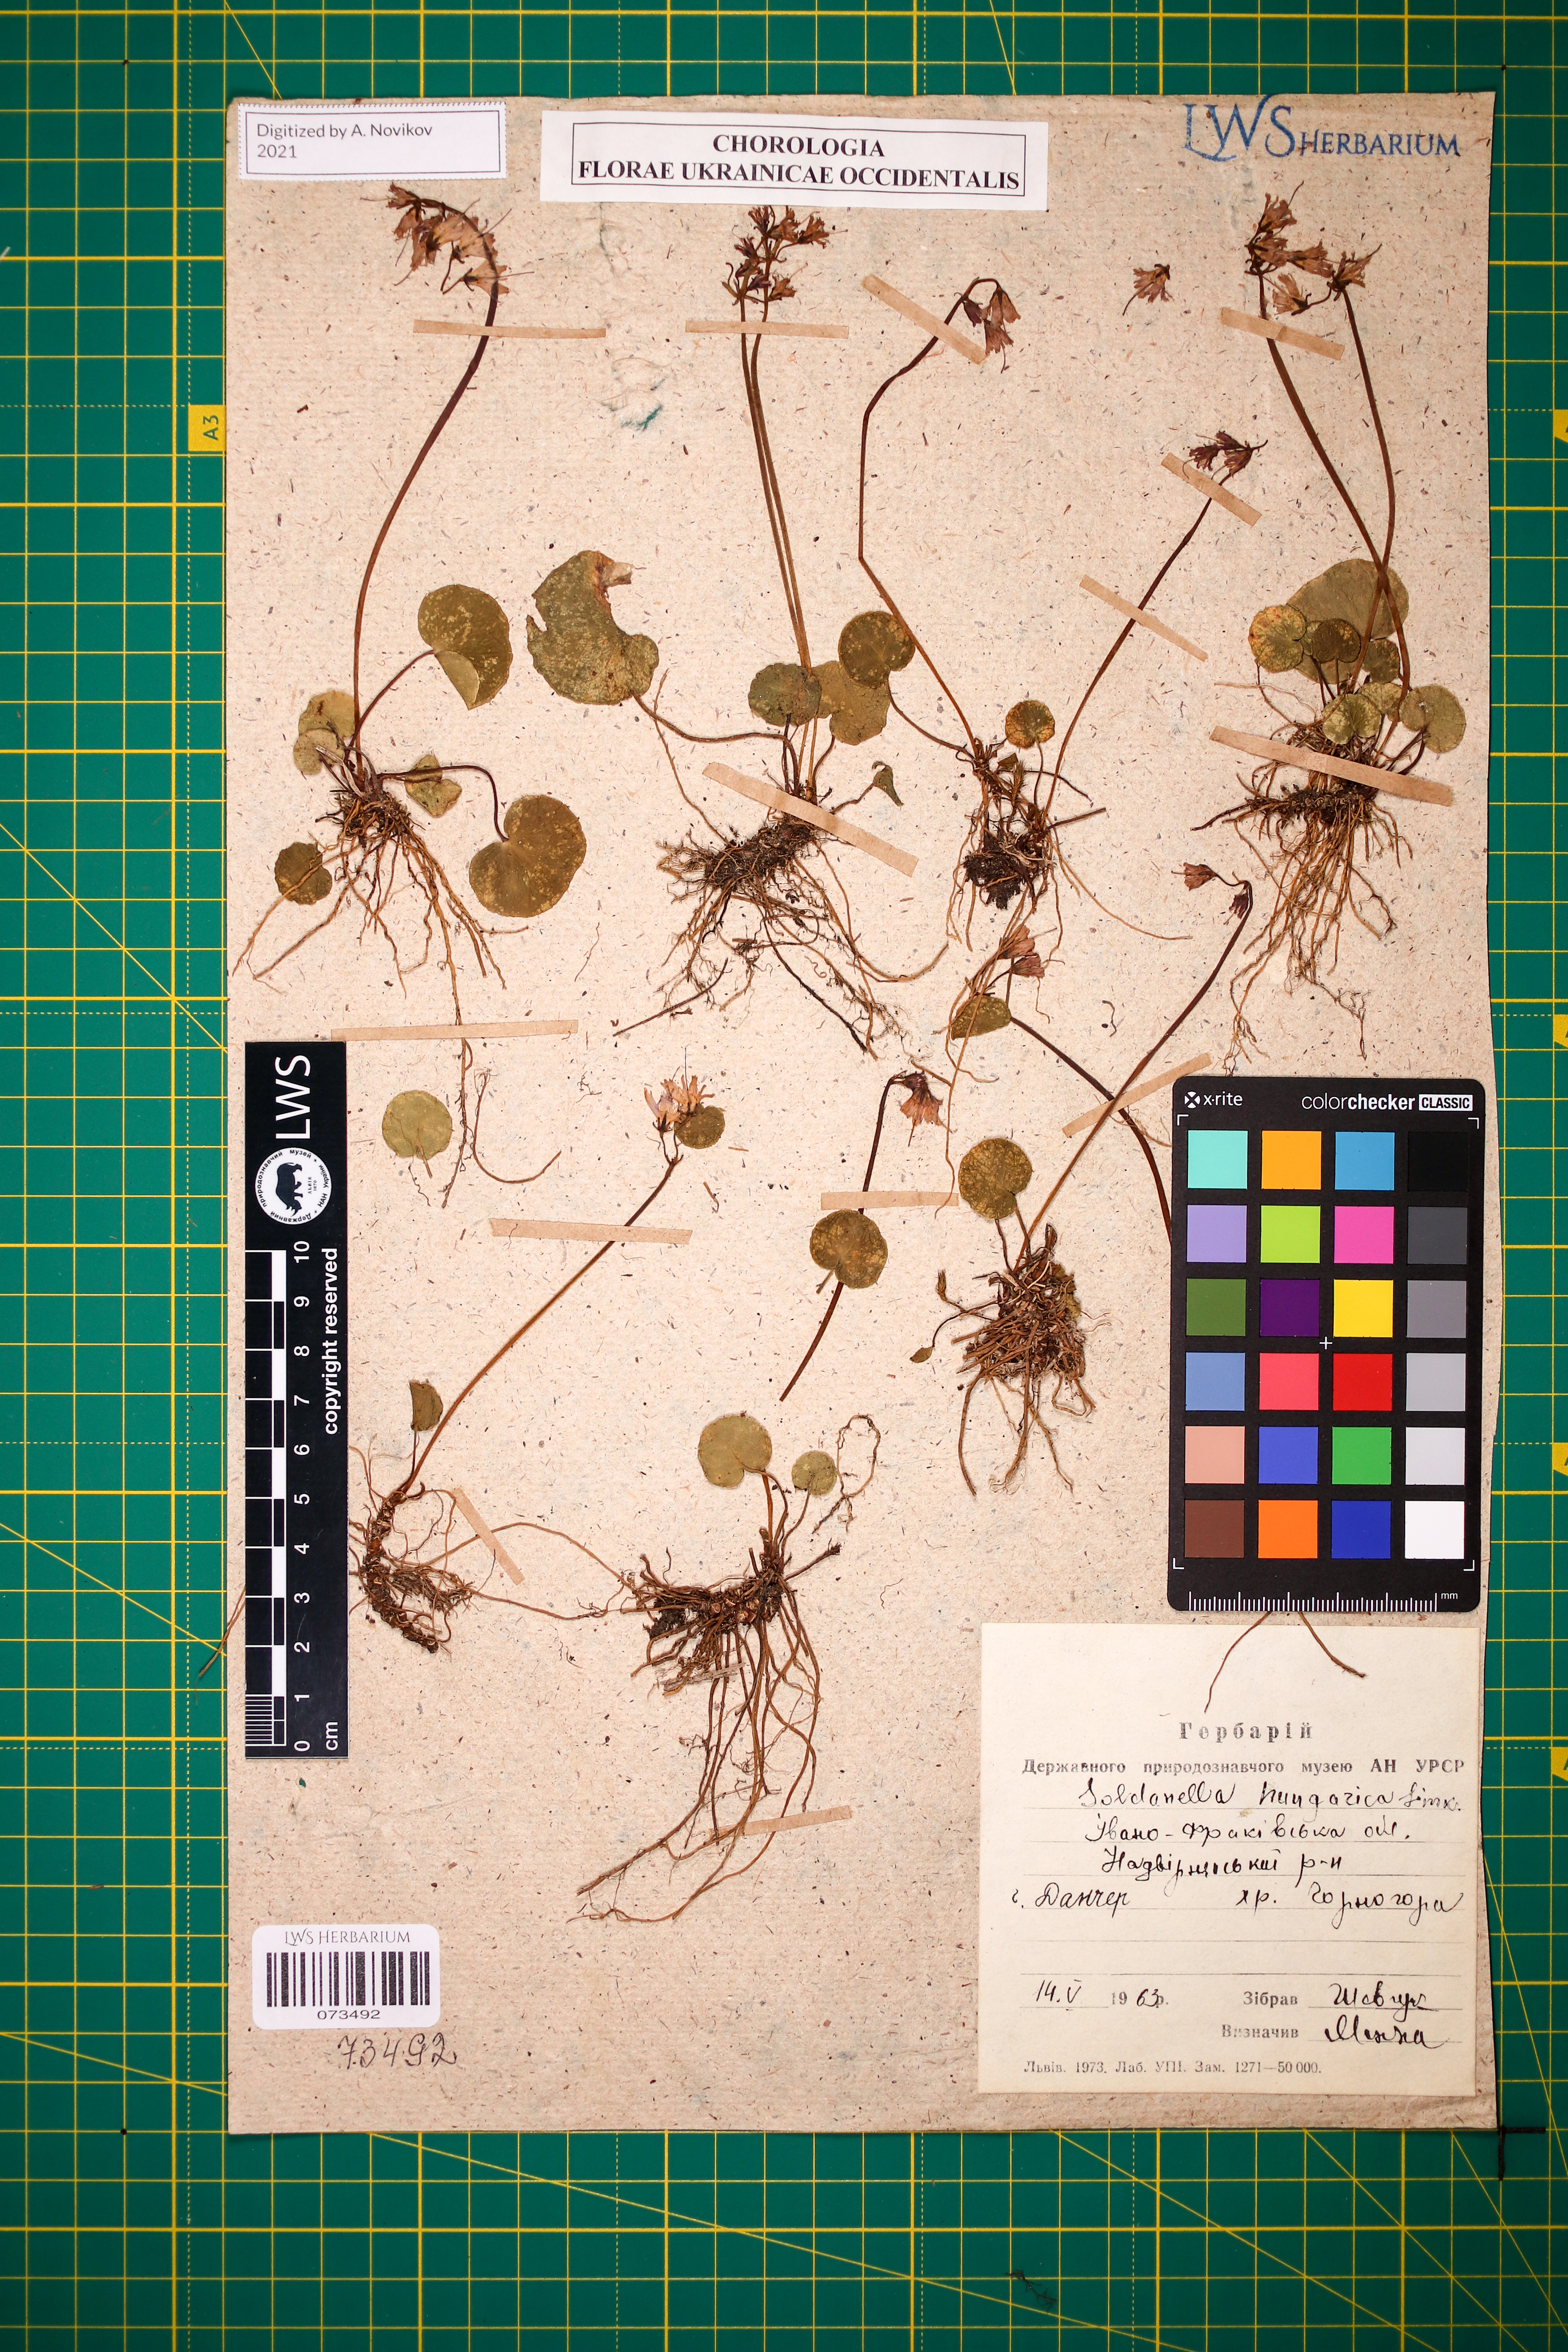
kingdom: Plantae
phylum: Tracheophyta
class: Magnoliopsida
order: Ericales
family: Primulaceae
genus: Soldanella
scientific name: Soldanella hungarica
